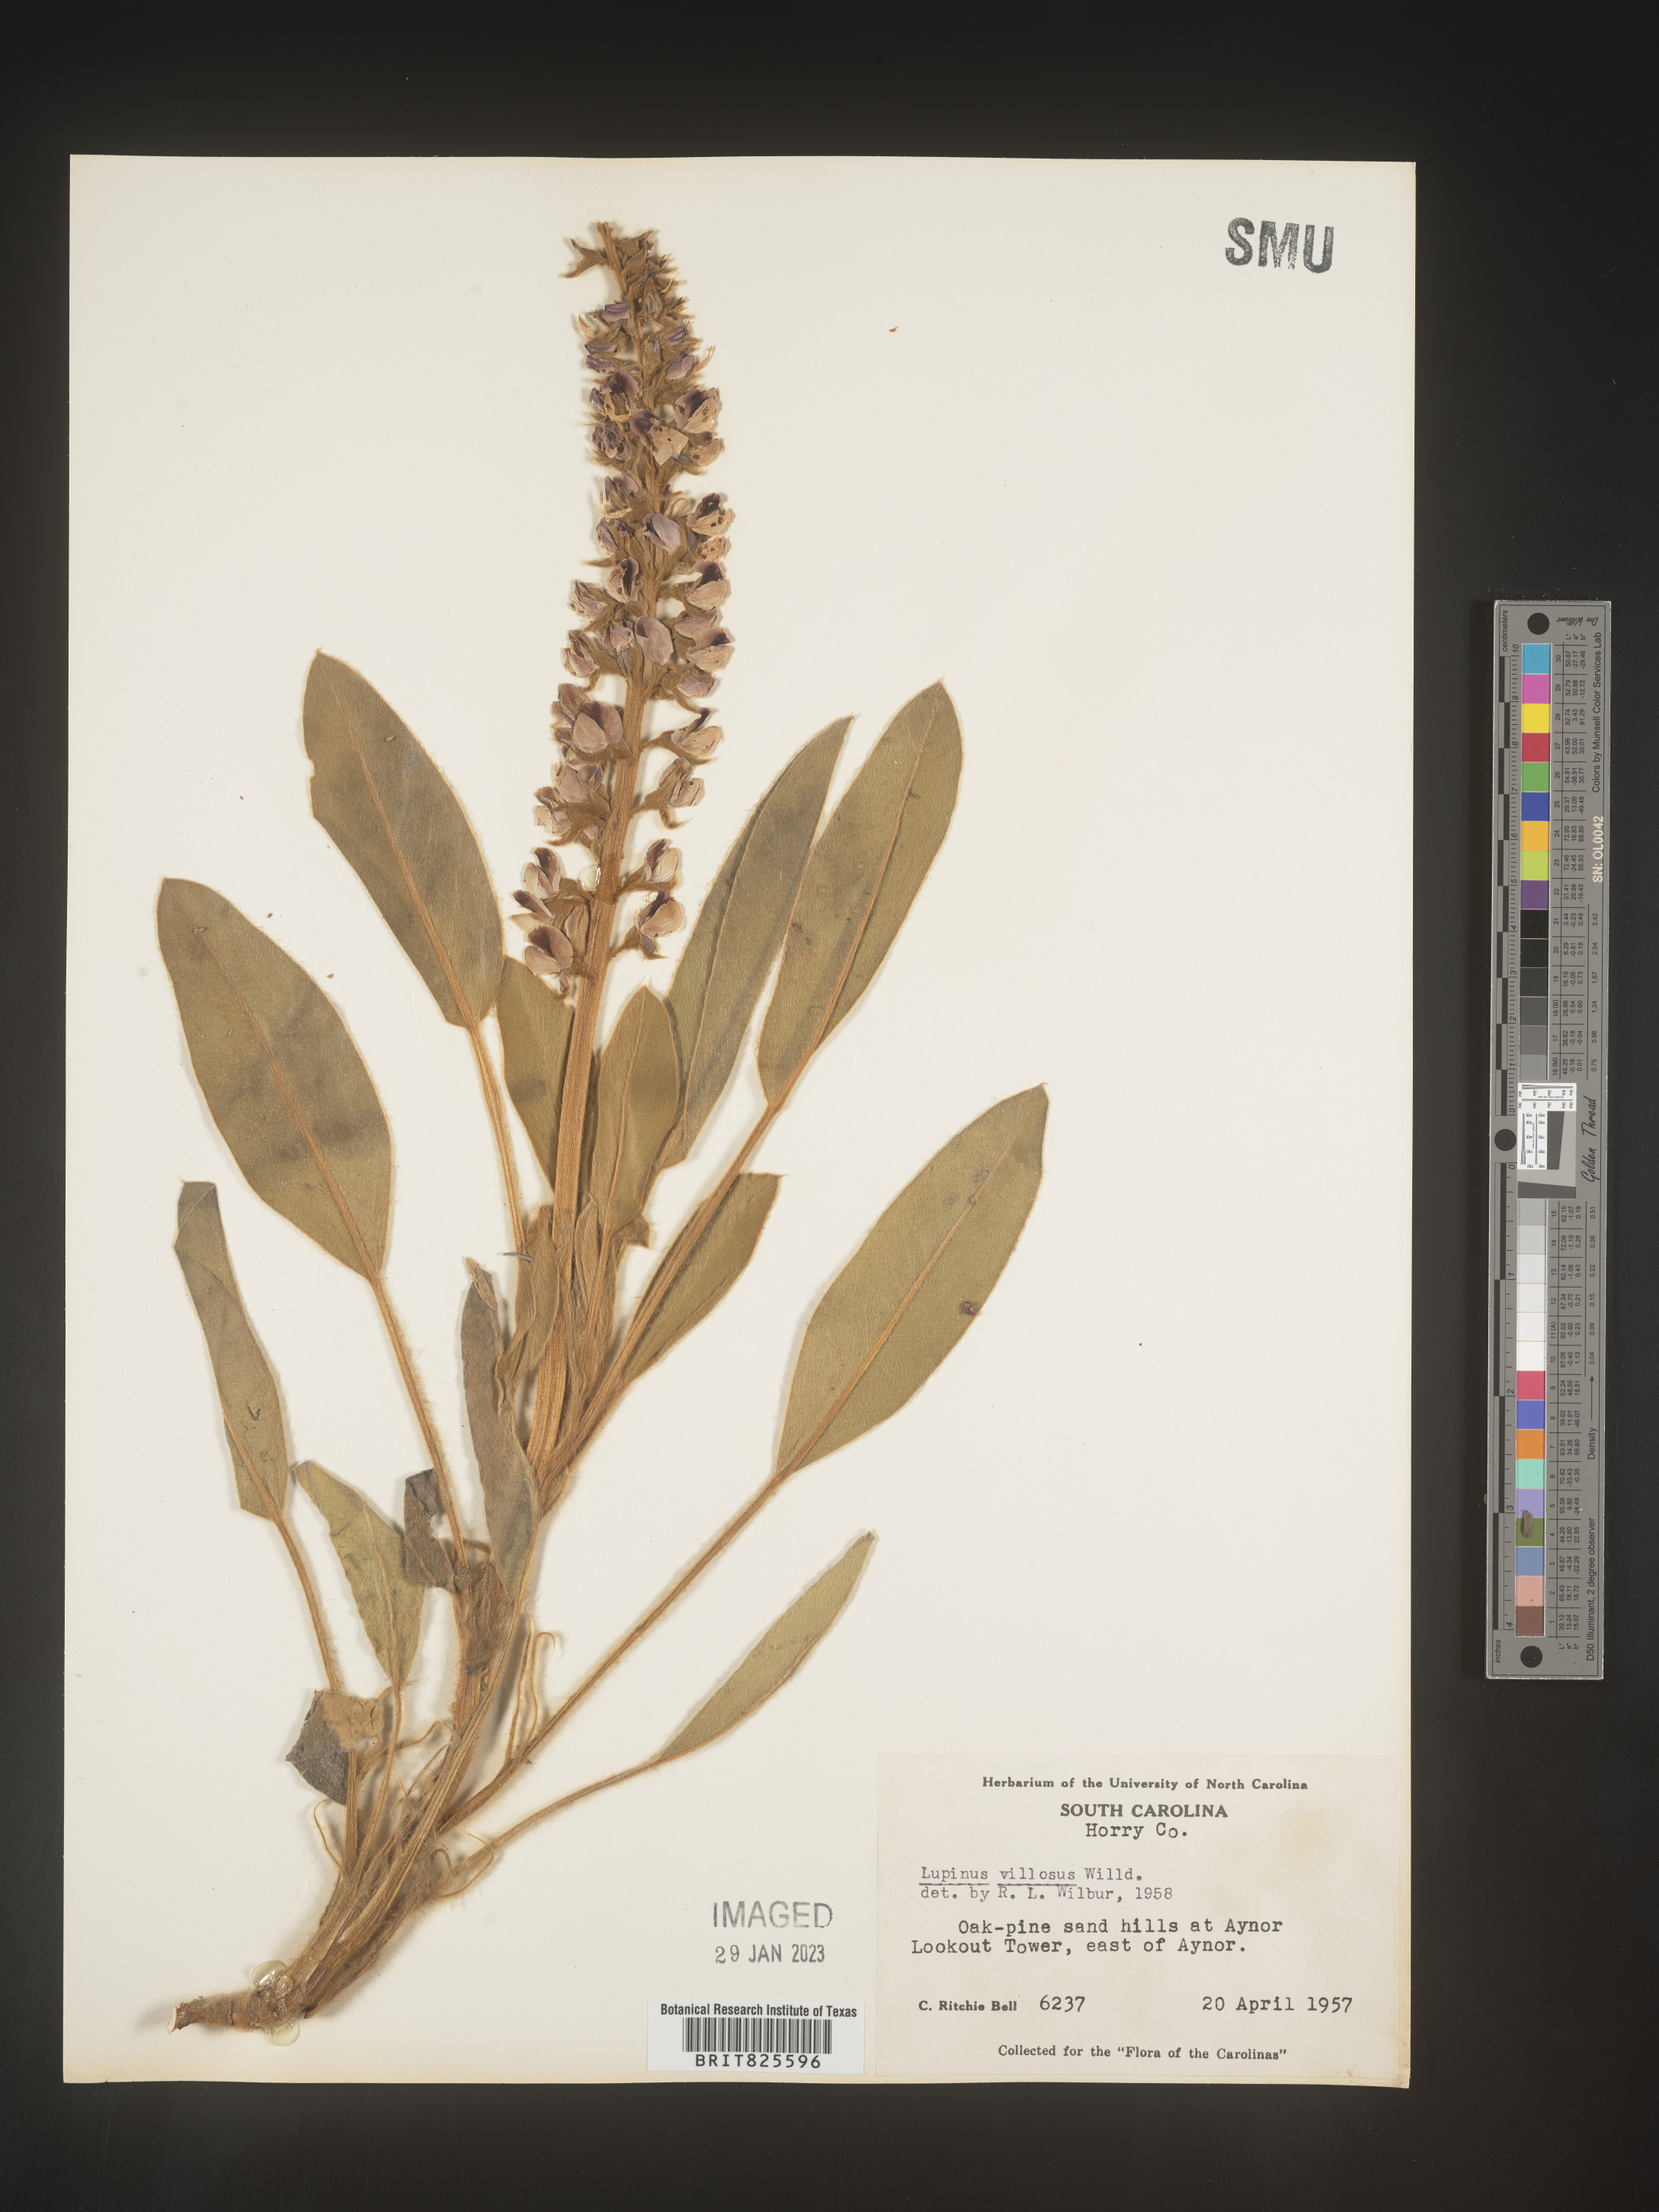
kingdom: Plantae
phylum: Tracheophyta
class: Magnoliopsida
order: Fabales
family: Fabaceae
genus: Lupinus
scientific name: Lupinus villosus
